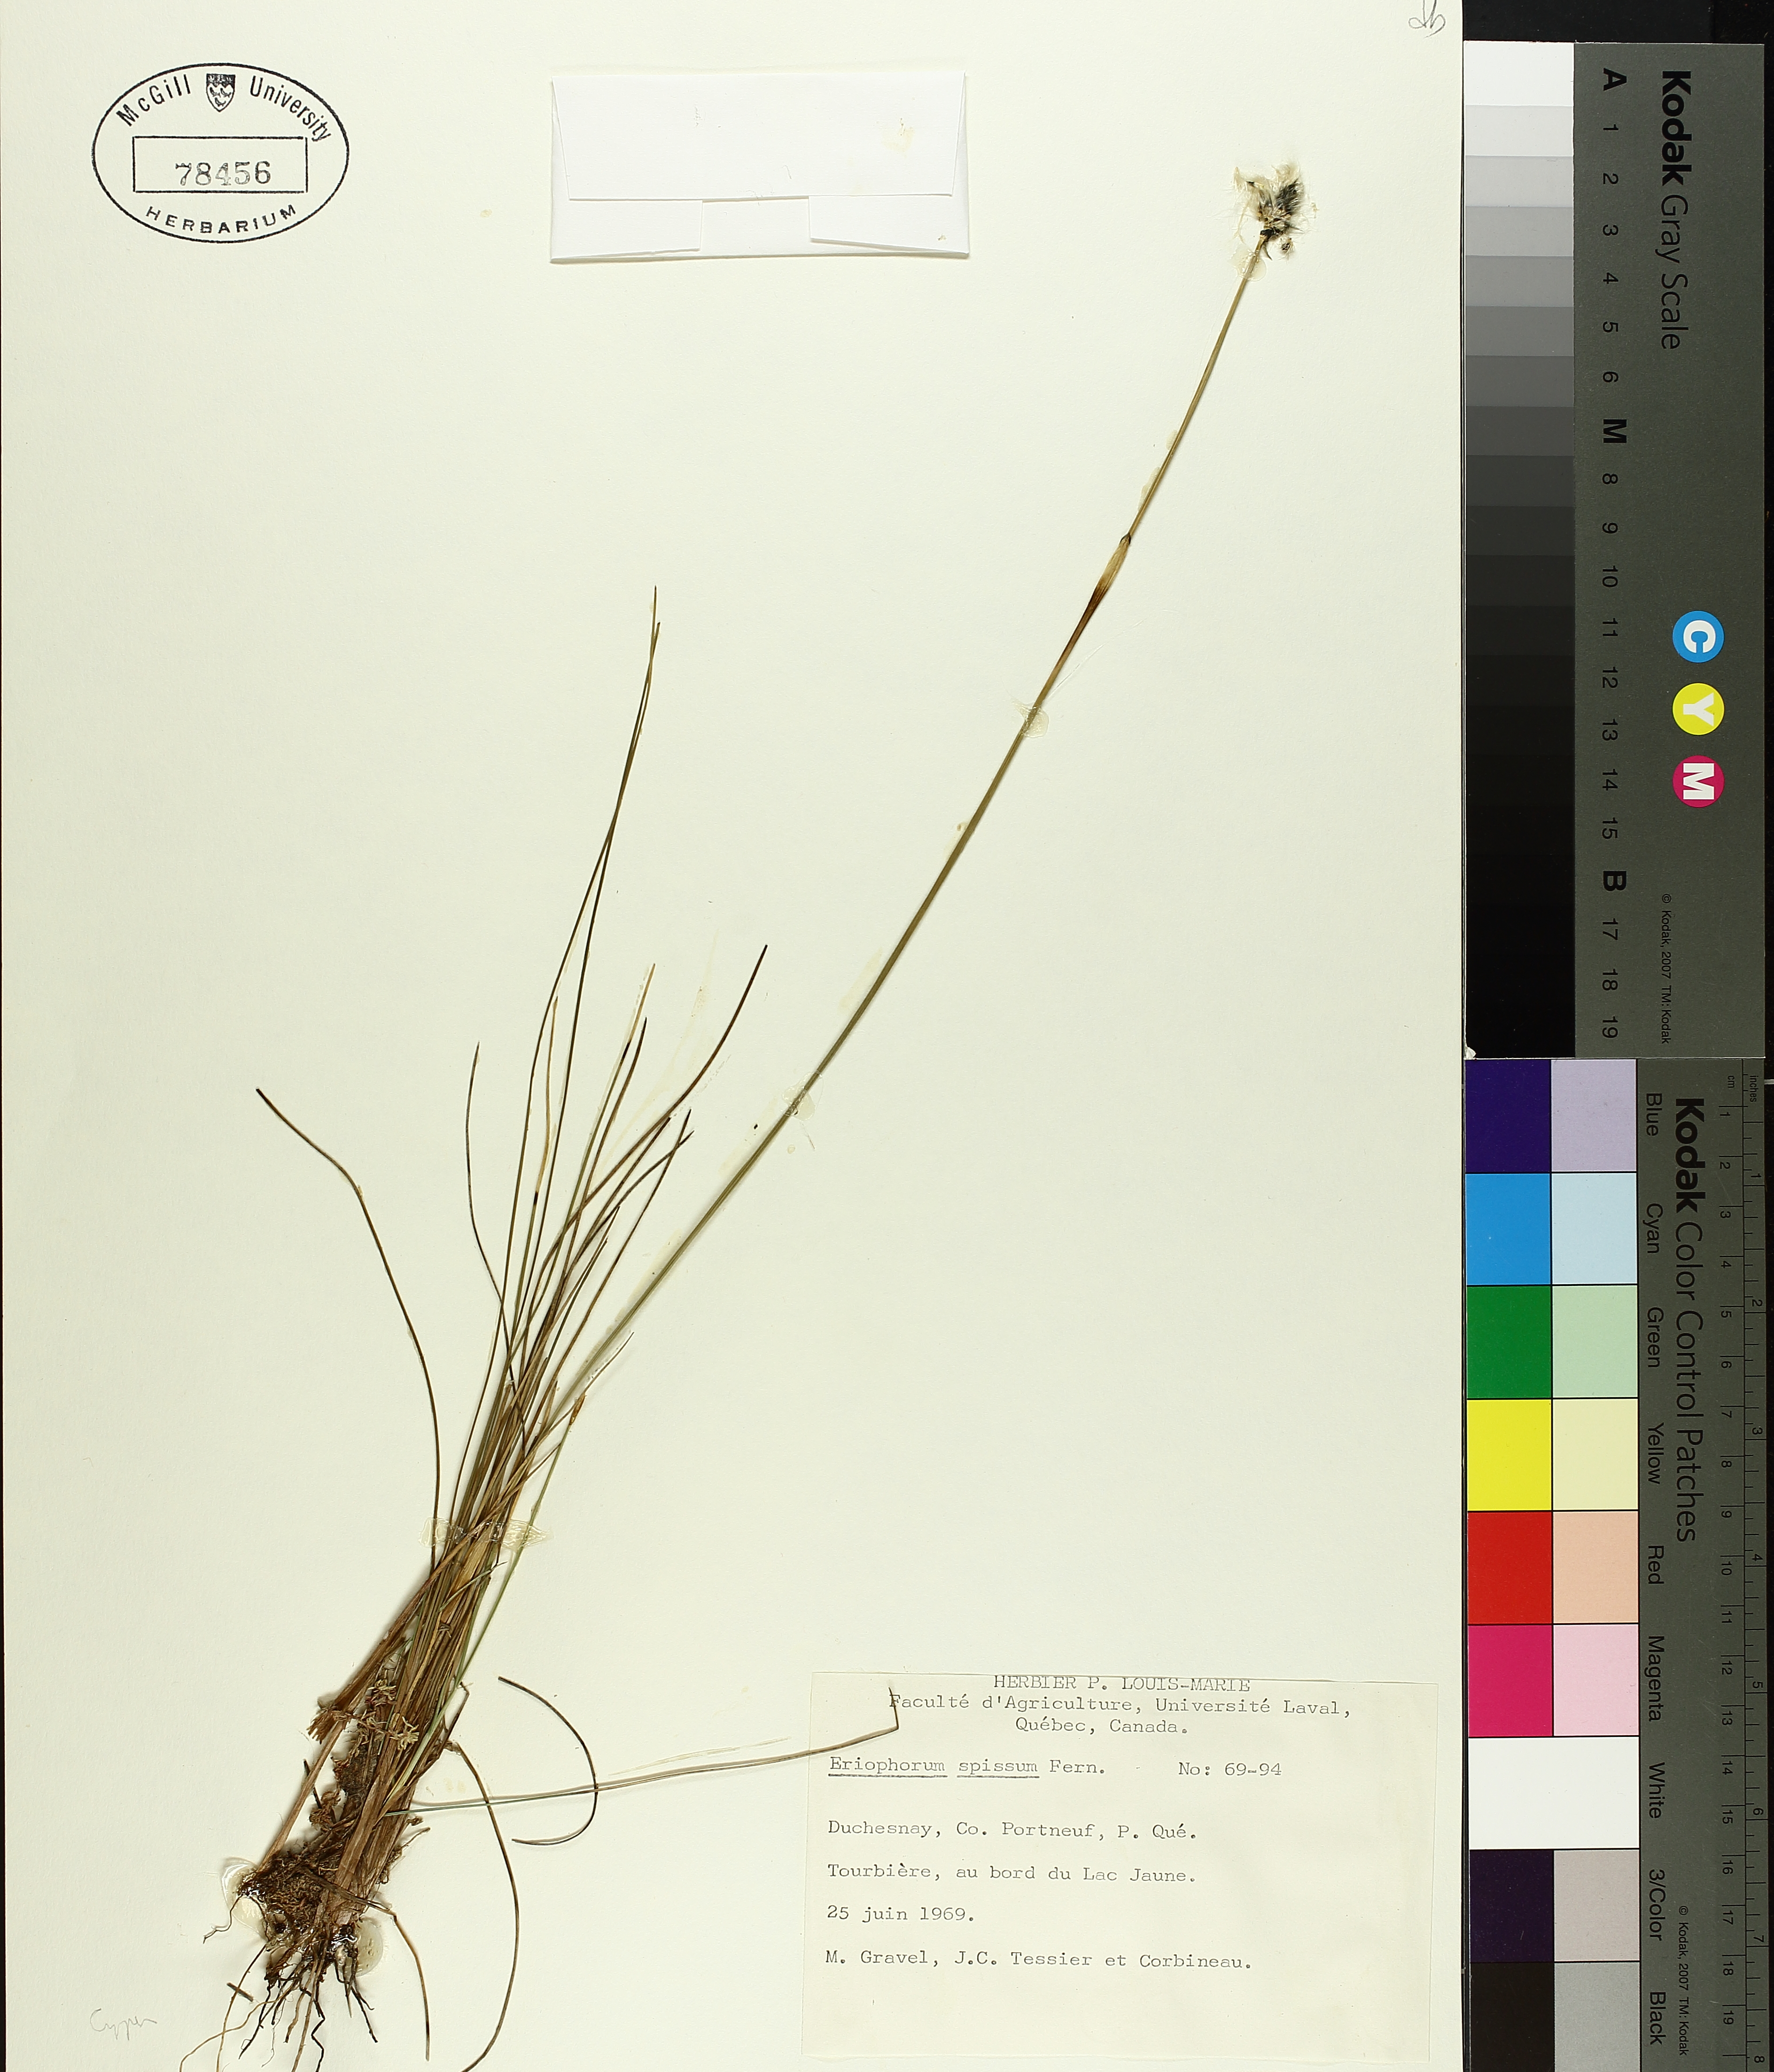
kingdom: Plantae
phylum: Tracheophyta
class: Liliopsida
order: Poales
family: Cyperaceae
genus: Eriophorum
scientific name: Eriophorum vaginatum
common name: Hare's-tail cottongrass
